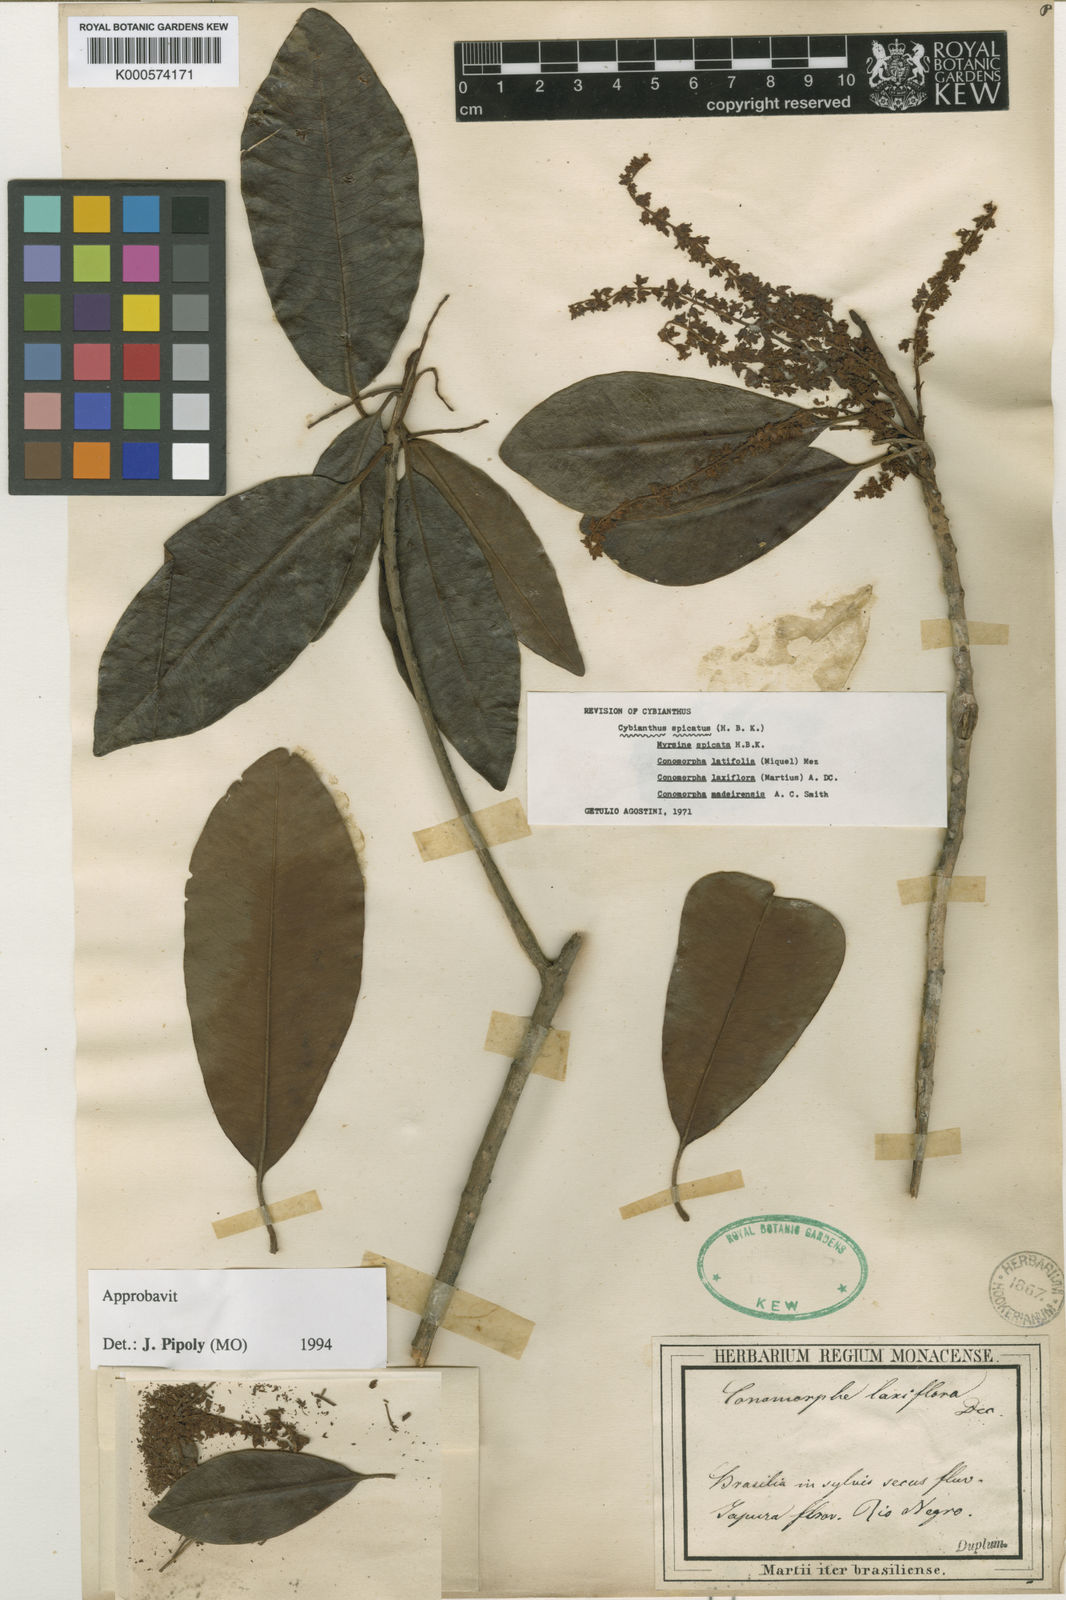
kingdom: Plantae
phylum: Tracheophyta
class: Magnoliopsida
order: Ericales
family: Primulaceae
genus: Cybianthus
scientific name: Cybianthus spicatus
